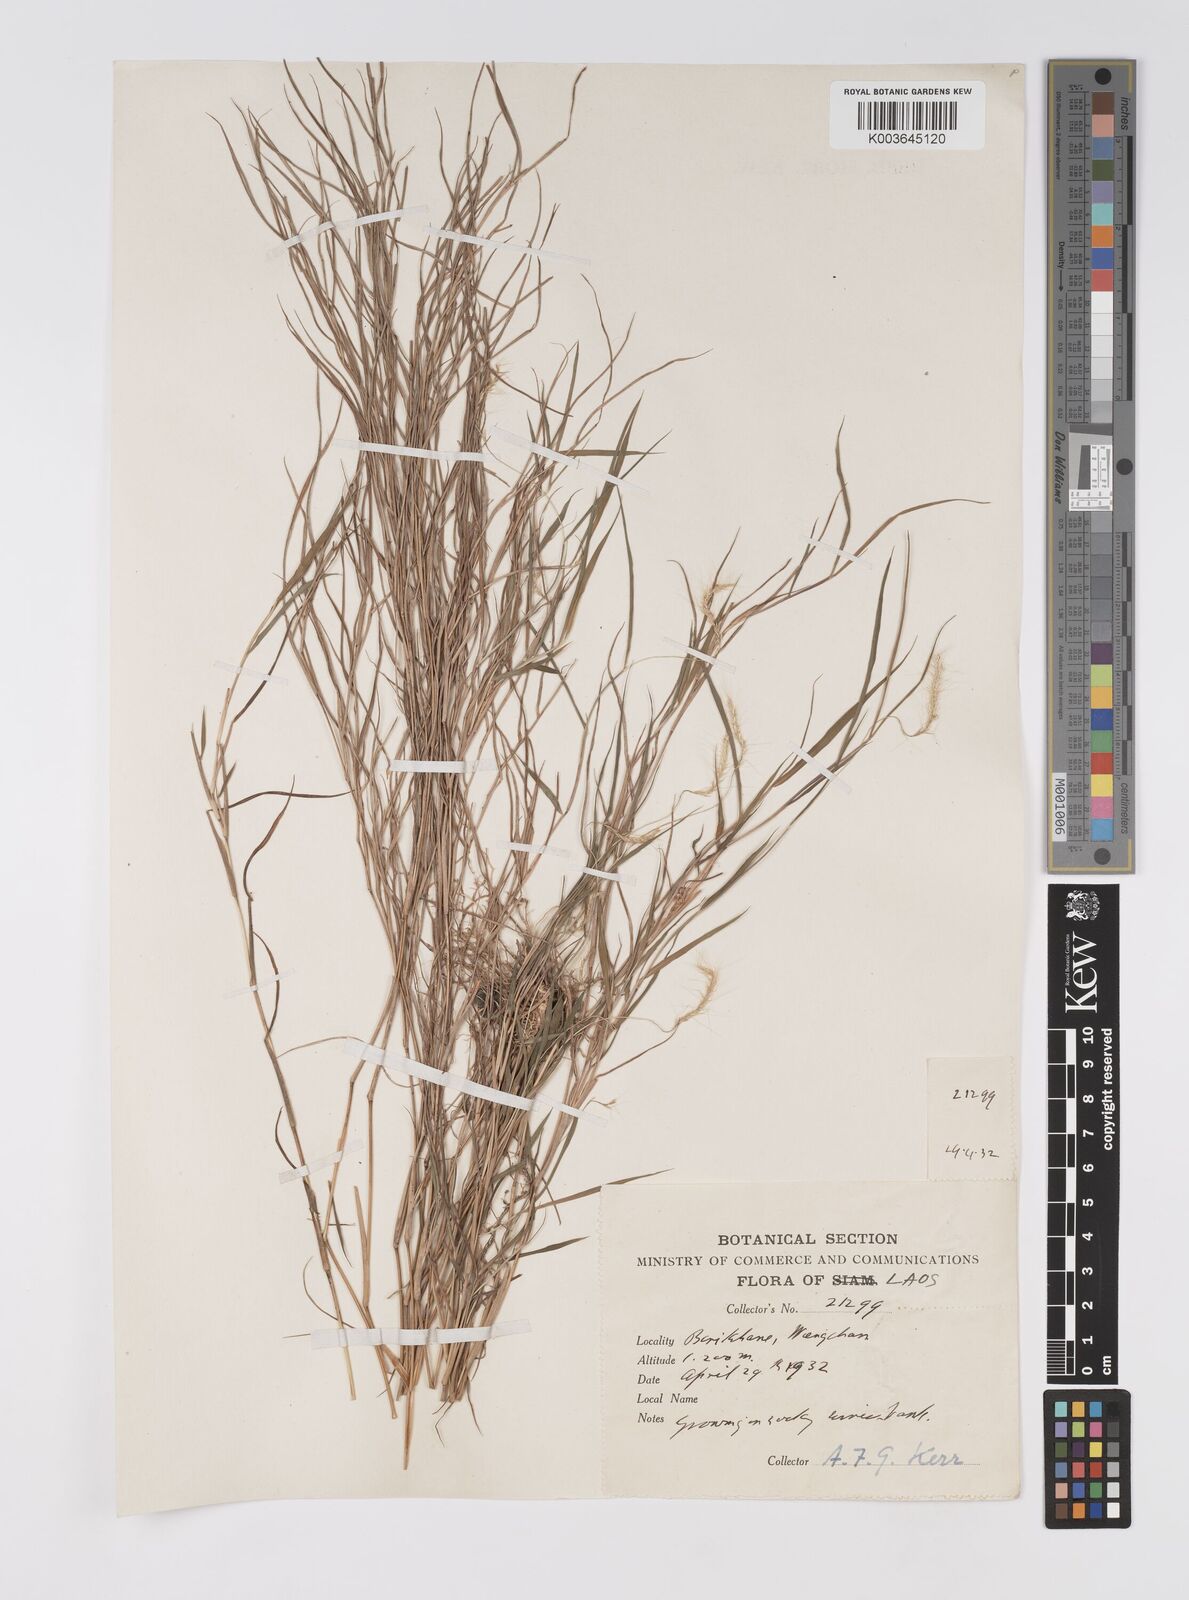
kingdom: Plantae
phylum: Tracheophyta
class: Liliopsida
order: Poales
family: Poaceae
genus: Pogonatherum
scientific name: Pogonatherum paniceum
